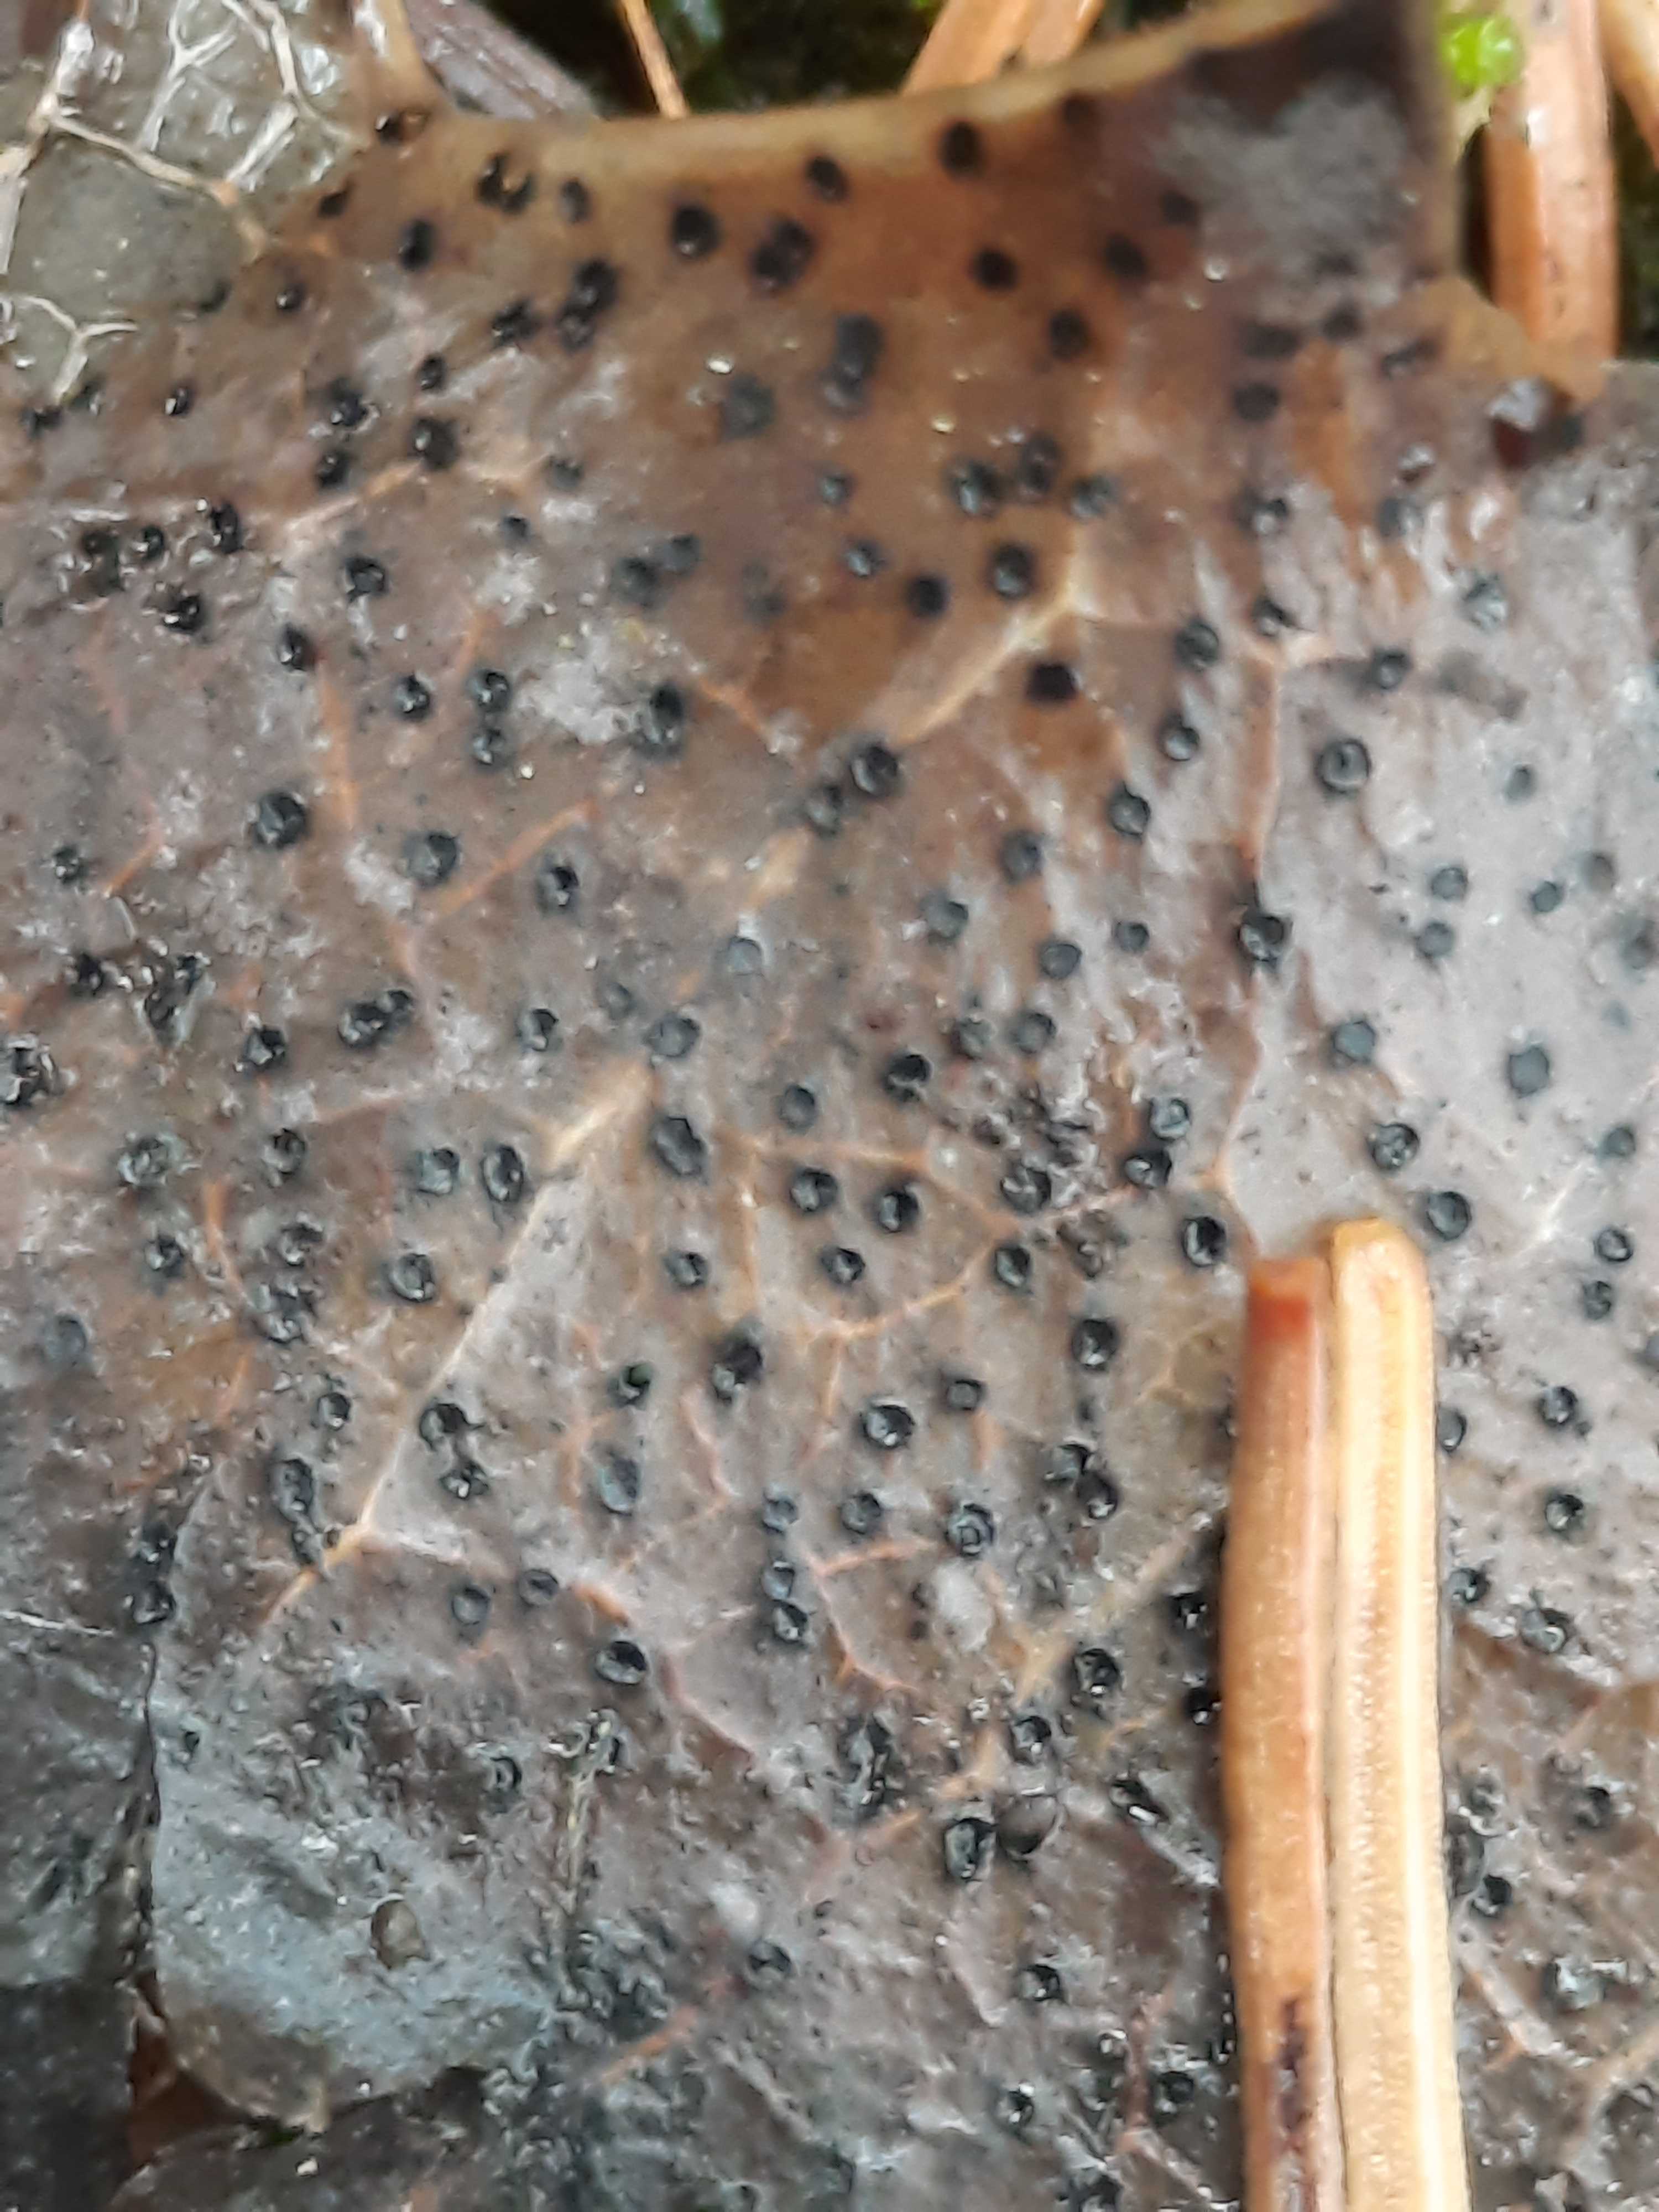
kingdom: Fungi
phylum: Ascomycota
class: Leotiomycetes
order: Helotiales
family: Cenangiaceae
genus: Trochila
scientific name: Trochila ilicina
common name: kristtorn-lågskive
